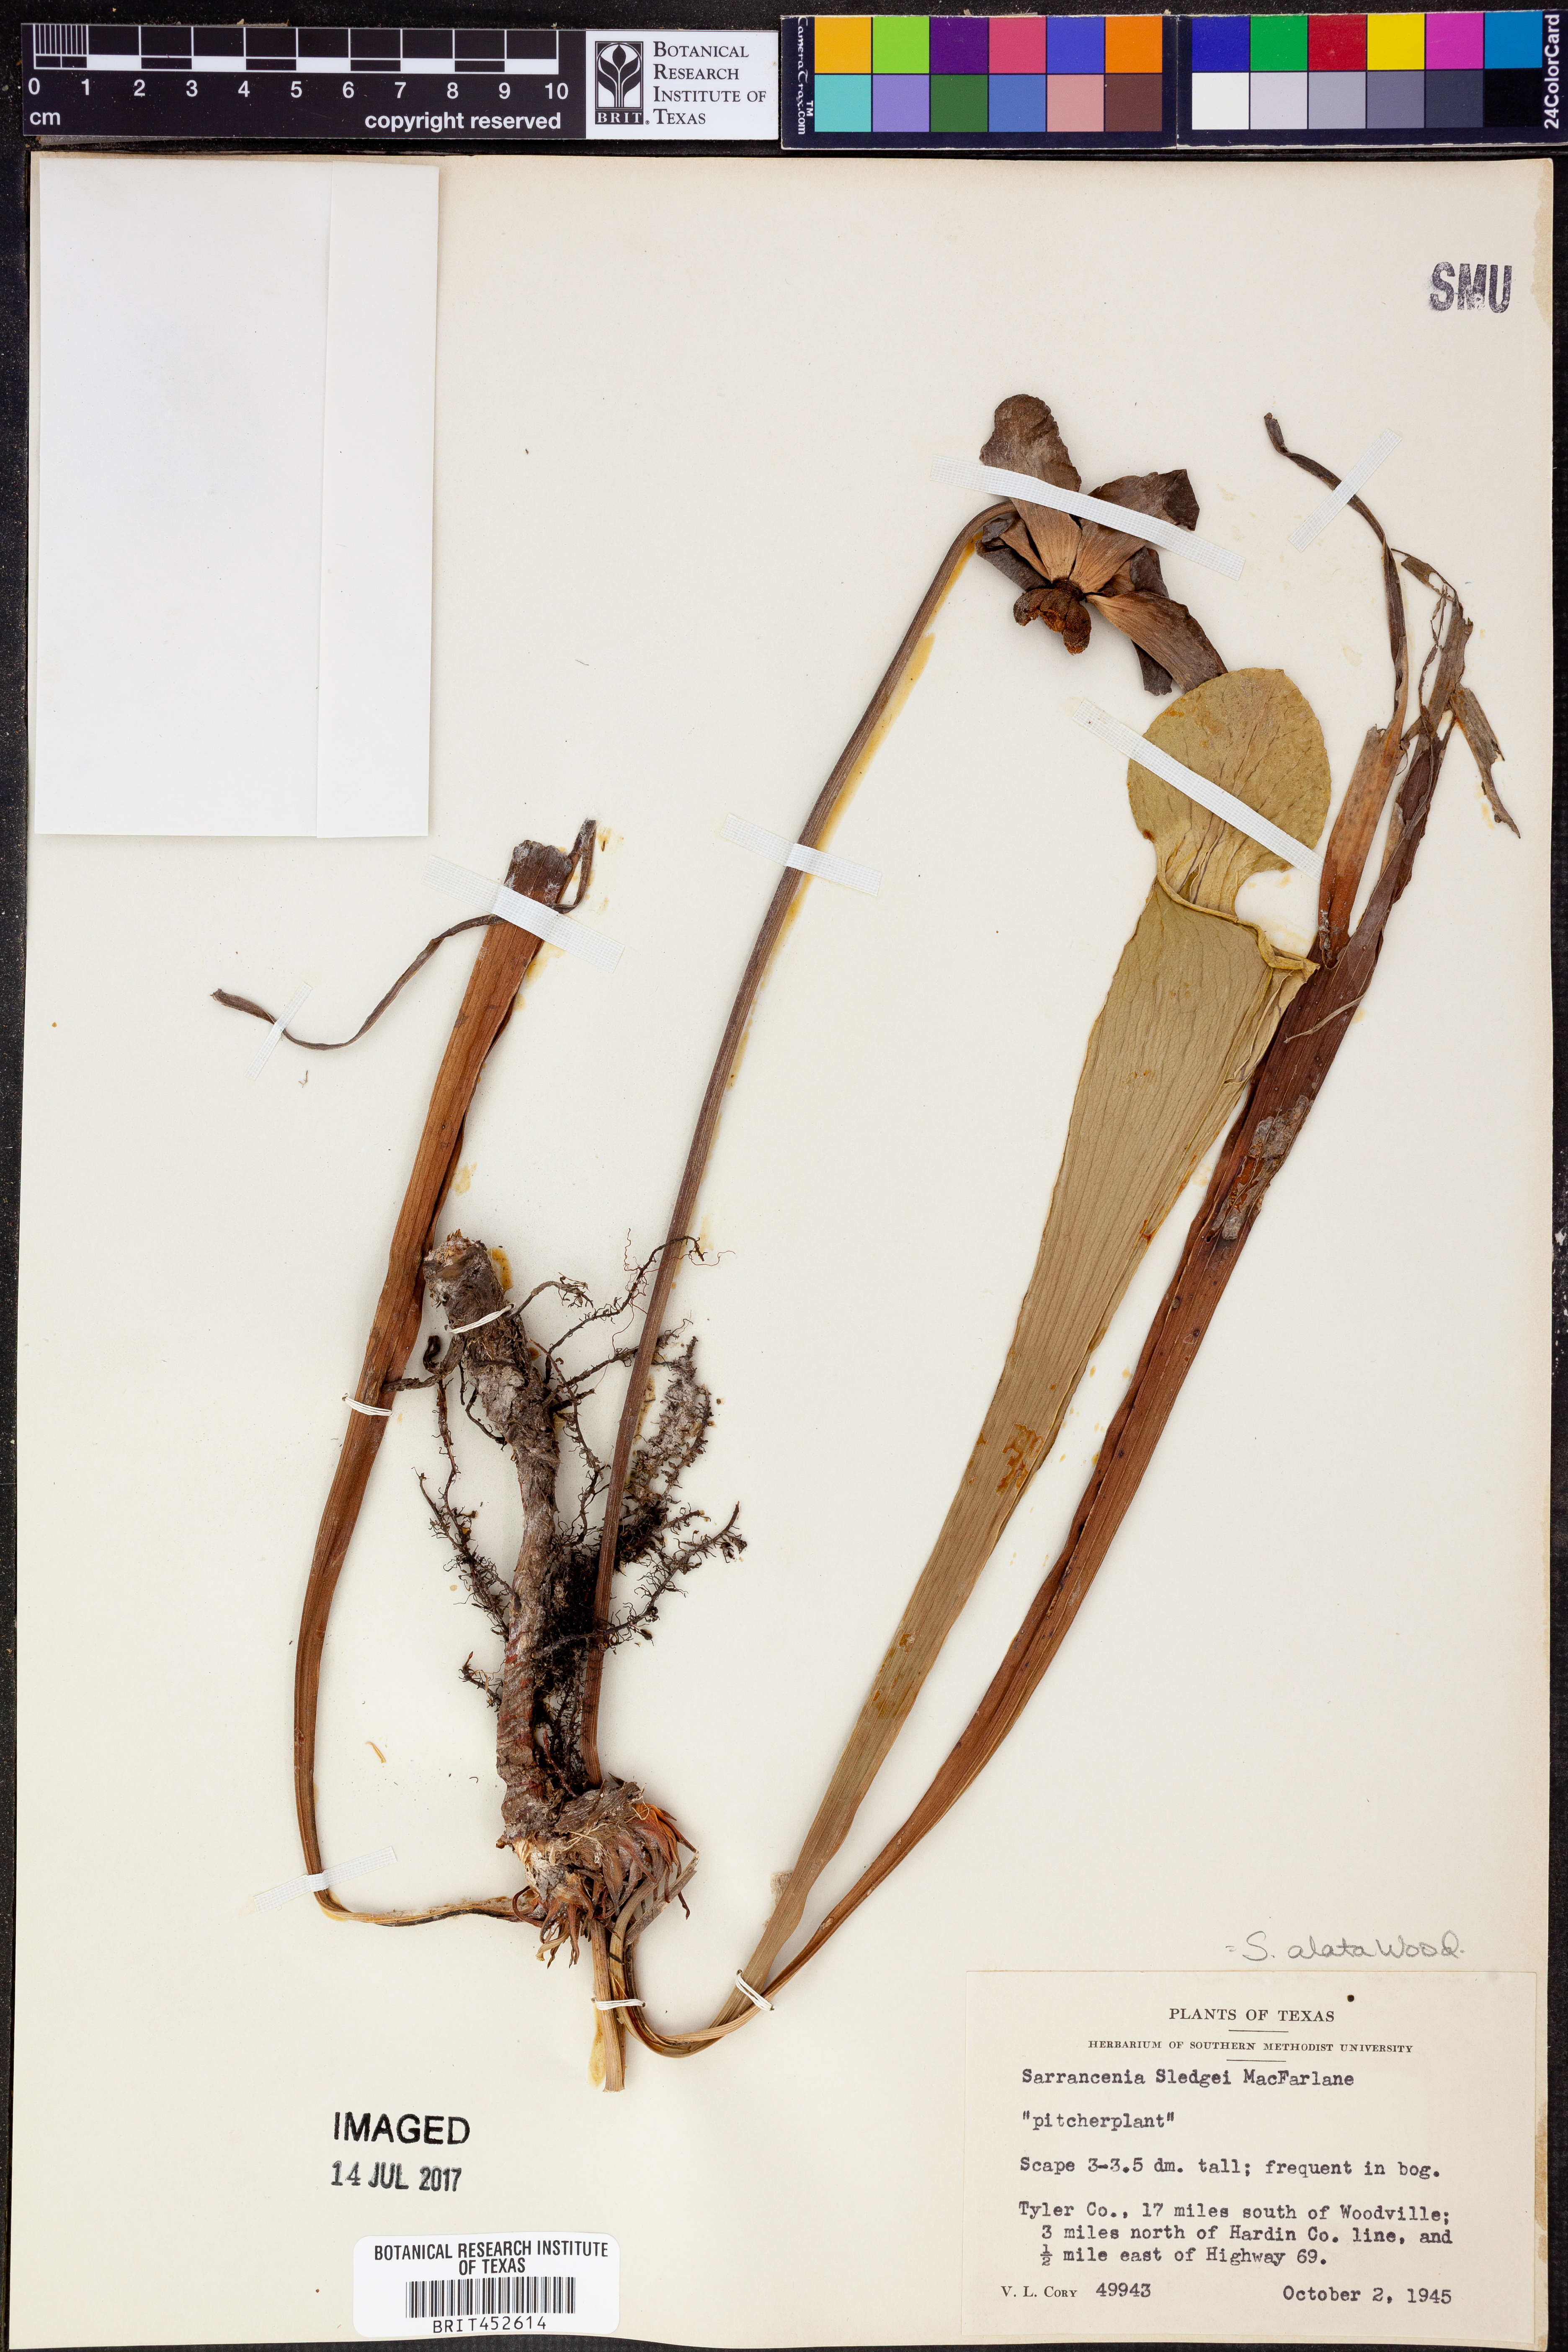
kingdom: Plantae
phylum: Tracheophyta
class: Magnoliopsida
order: Ericales
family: Sarraceniaceae
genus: Sarracenia
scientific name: Sarracenia alata
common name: Yellow trumpets
